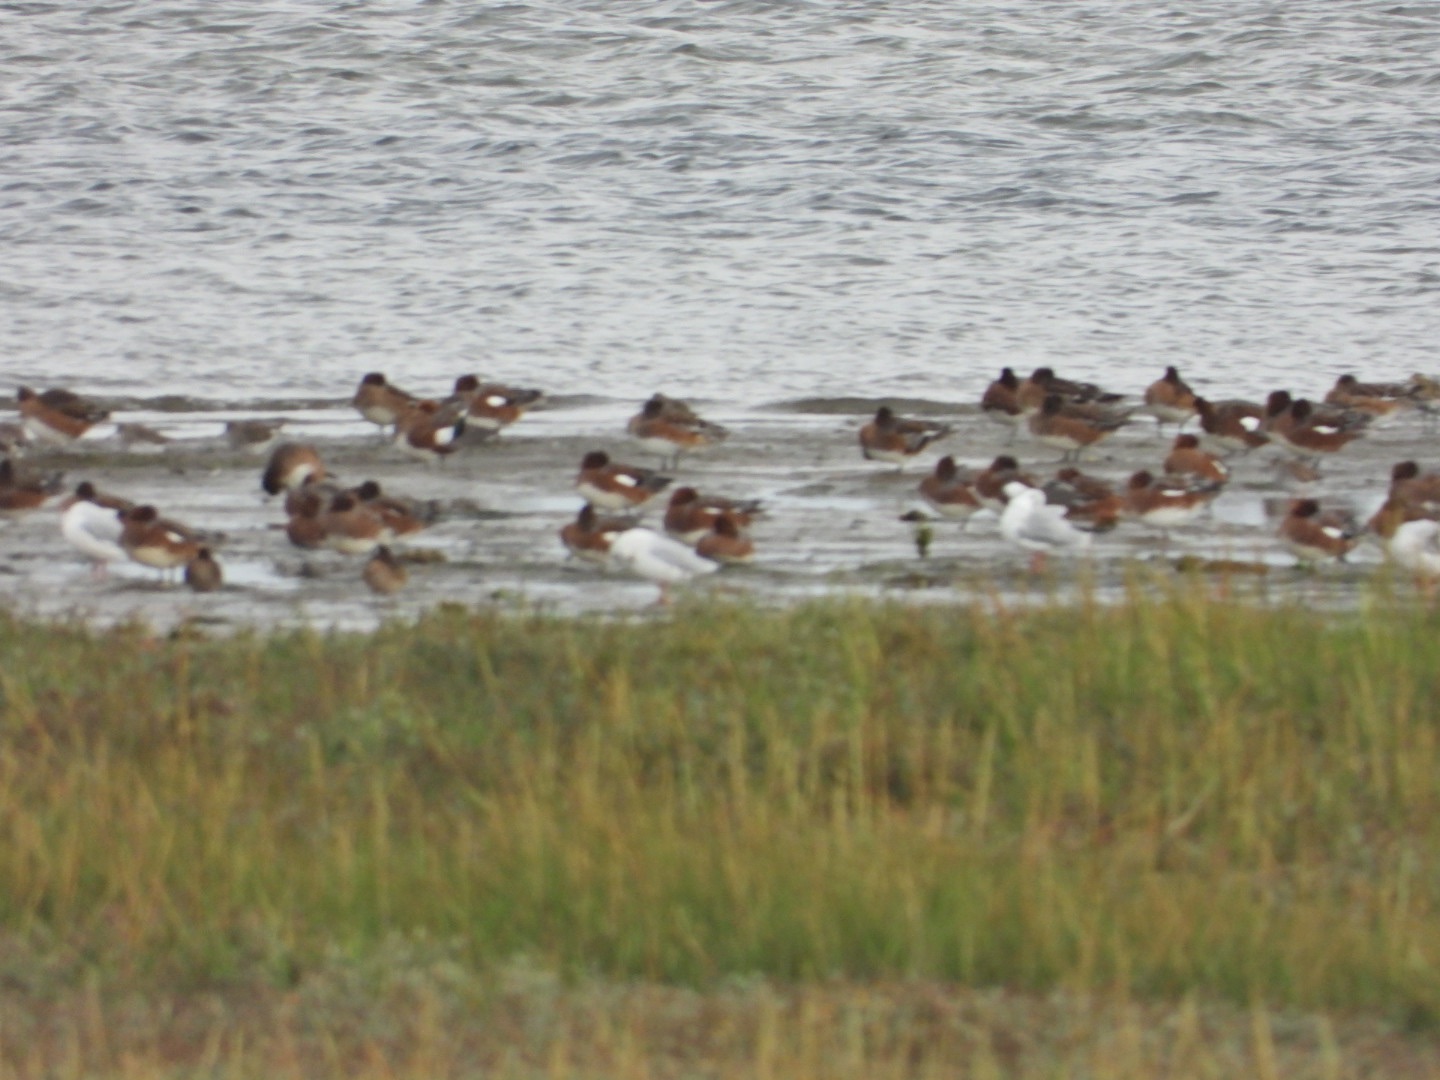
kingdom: Animalia
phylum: Chordata
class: Aves
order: Anseriformes
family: Anatidae
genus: Mareca
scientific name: Mareca penelope
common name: Pibeand
